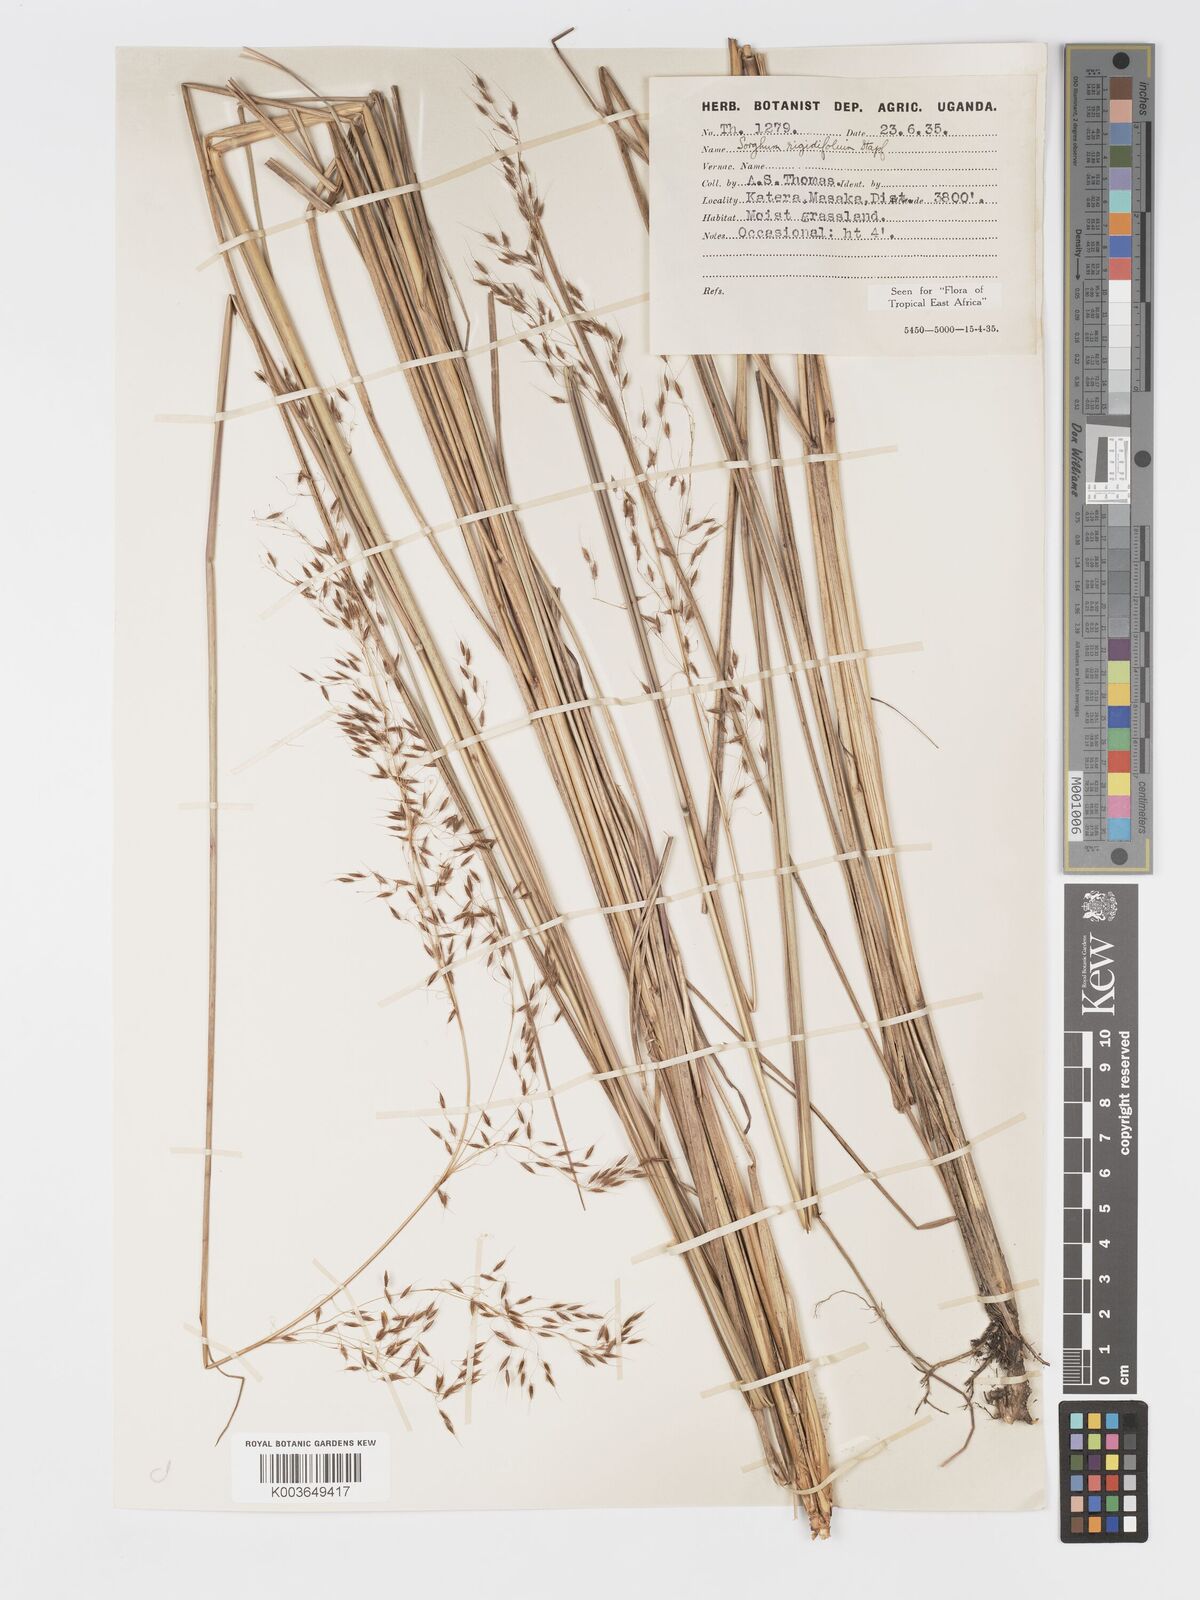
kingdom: Plantae
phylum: Tracheophyta
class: Liliopsida
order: Poales
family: Poaceae
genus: Sorghastrum
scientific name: Sorghastrum stipoides
